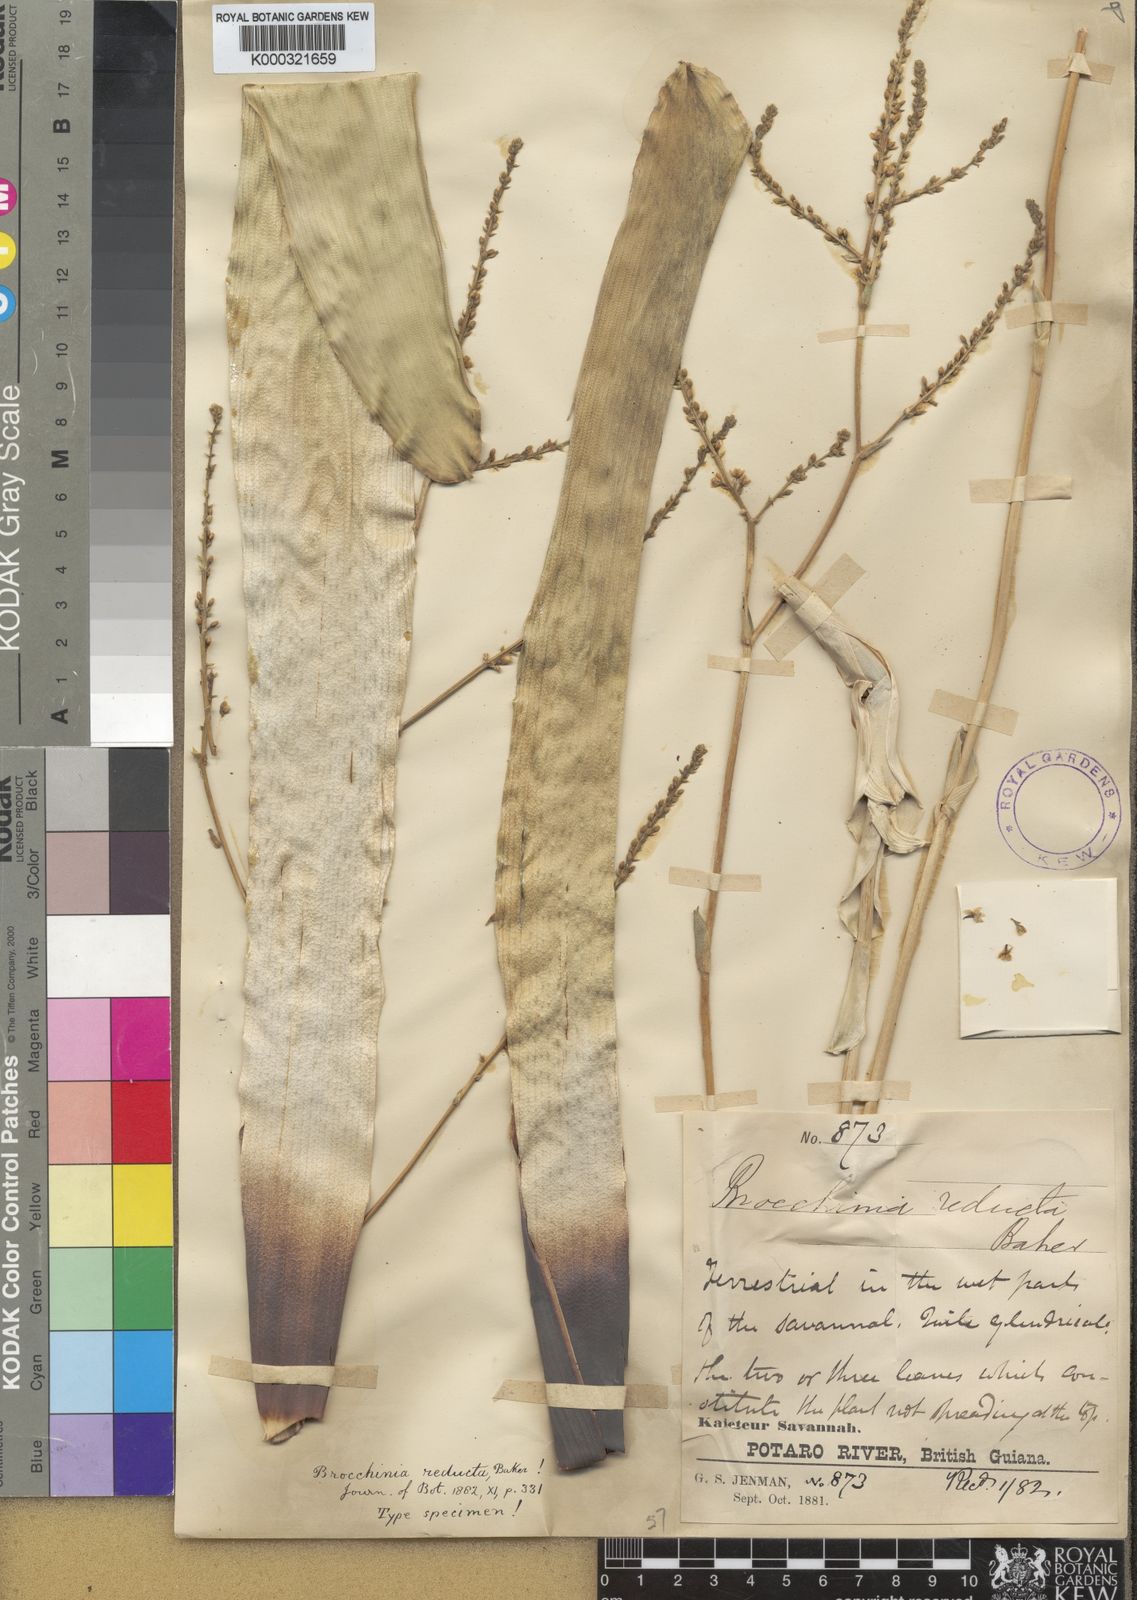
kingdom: Plantae
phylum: Tracheophyta
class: Liliopsida
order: Poales
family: Bromeliaceae
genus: Brocchinia
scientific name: Brocchinia reducta
